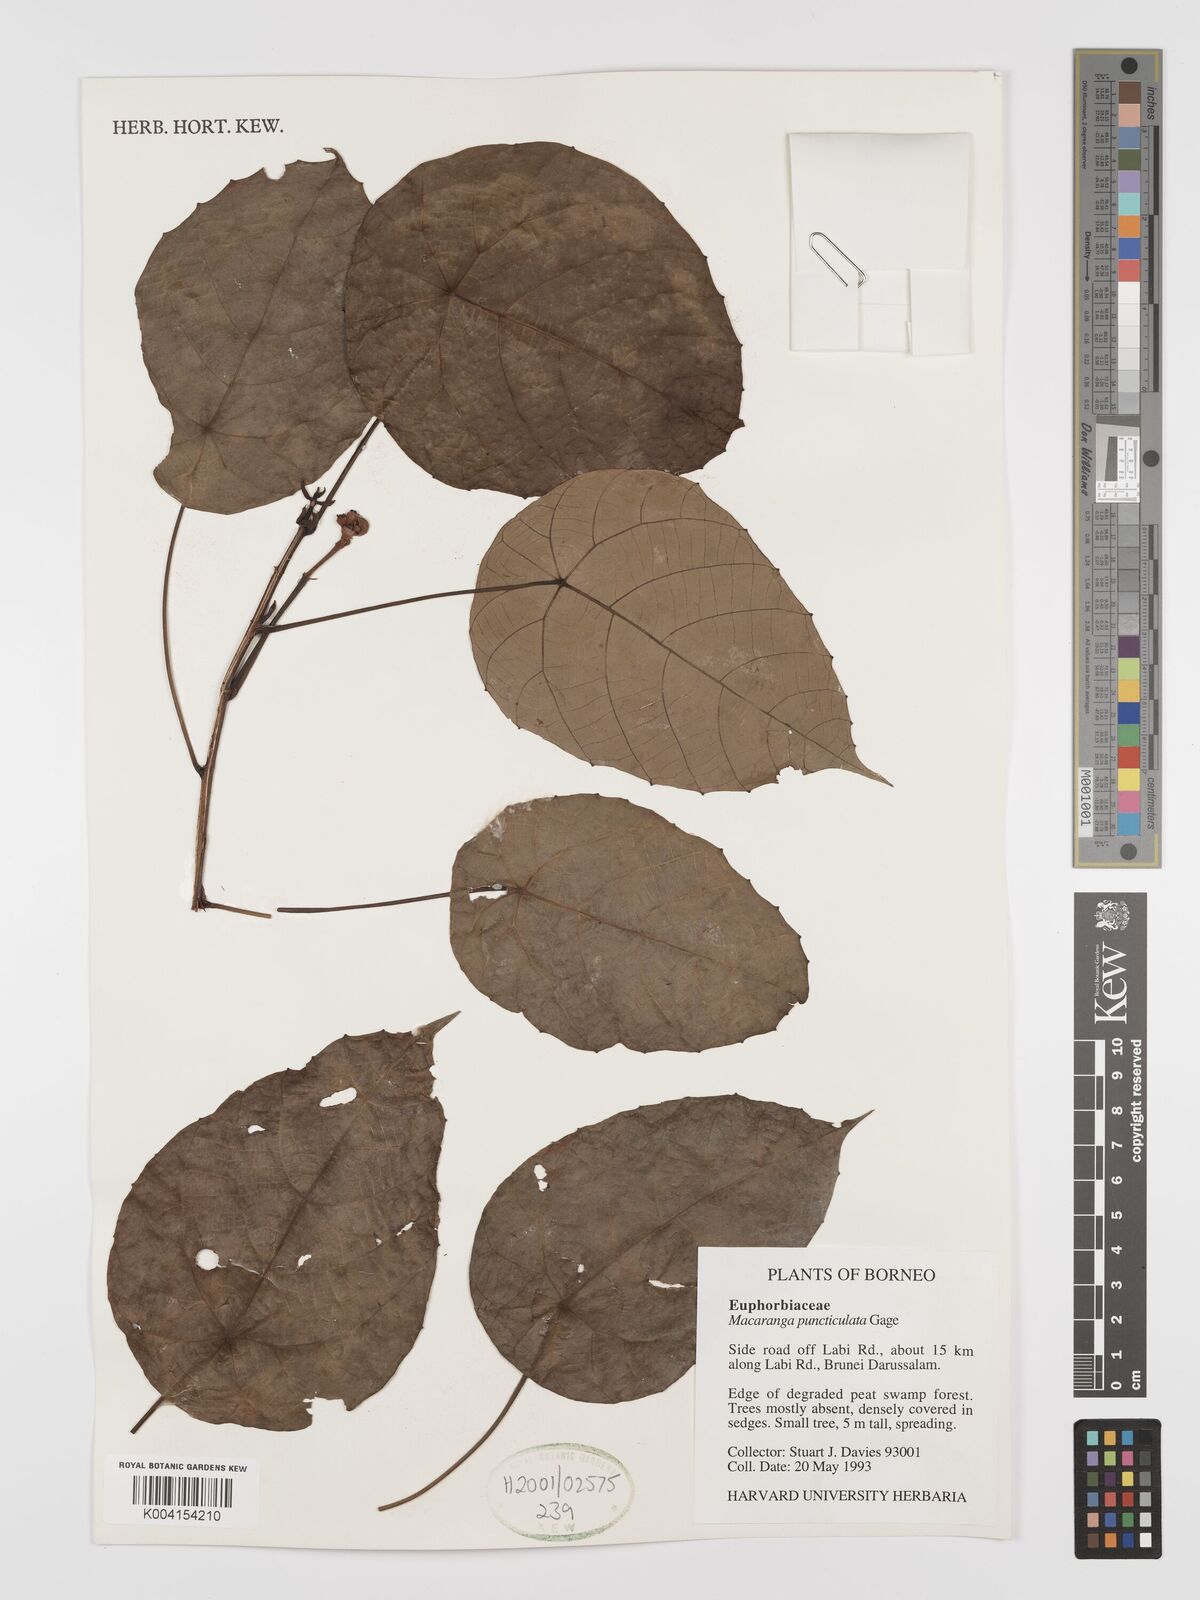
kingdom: Plantae
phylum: Tracheophyta
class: Magnoliopsida
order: Malpighiales
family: Euphorbiaceae
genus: Macaranga
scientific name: Macaranga puncticulata
